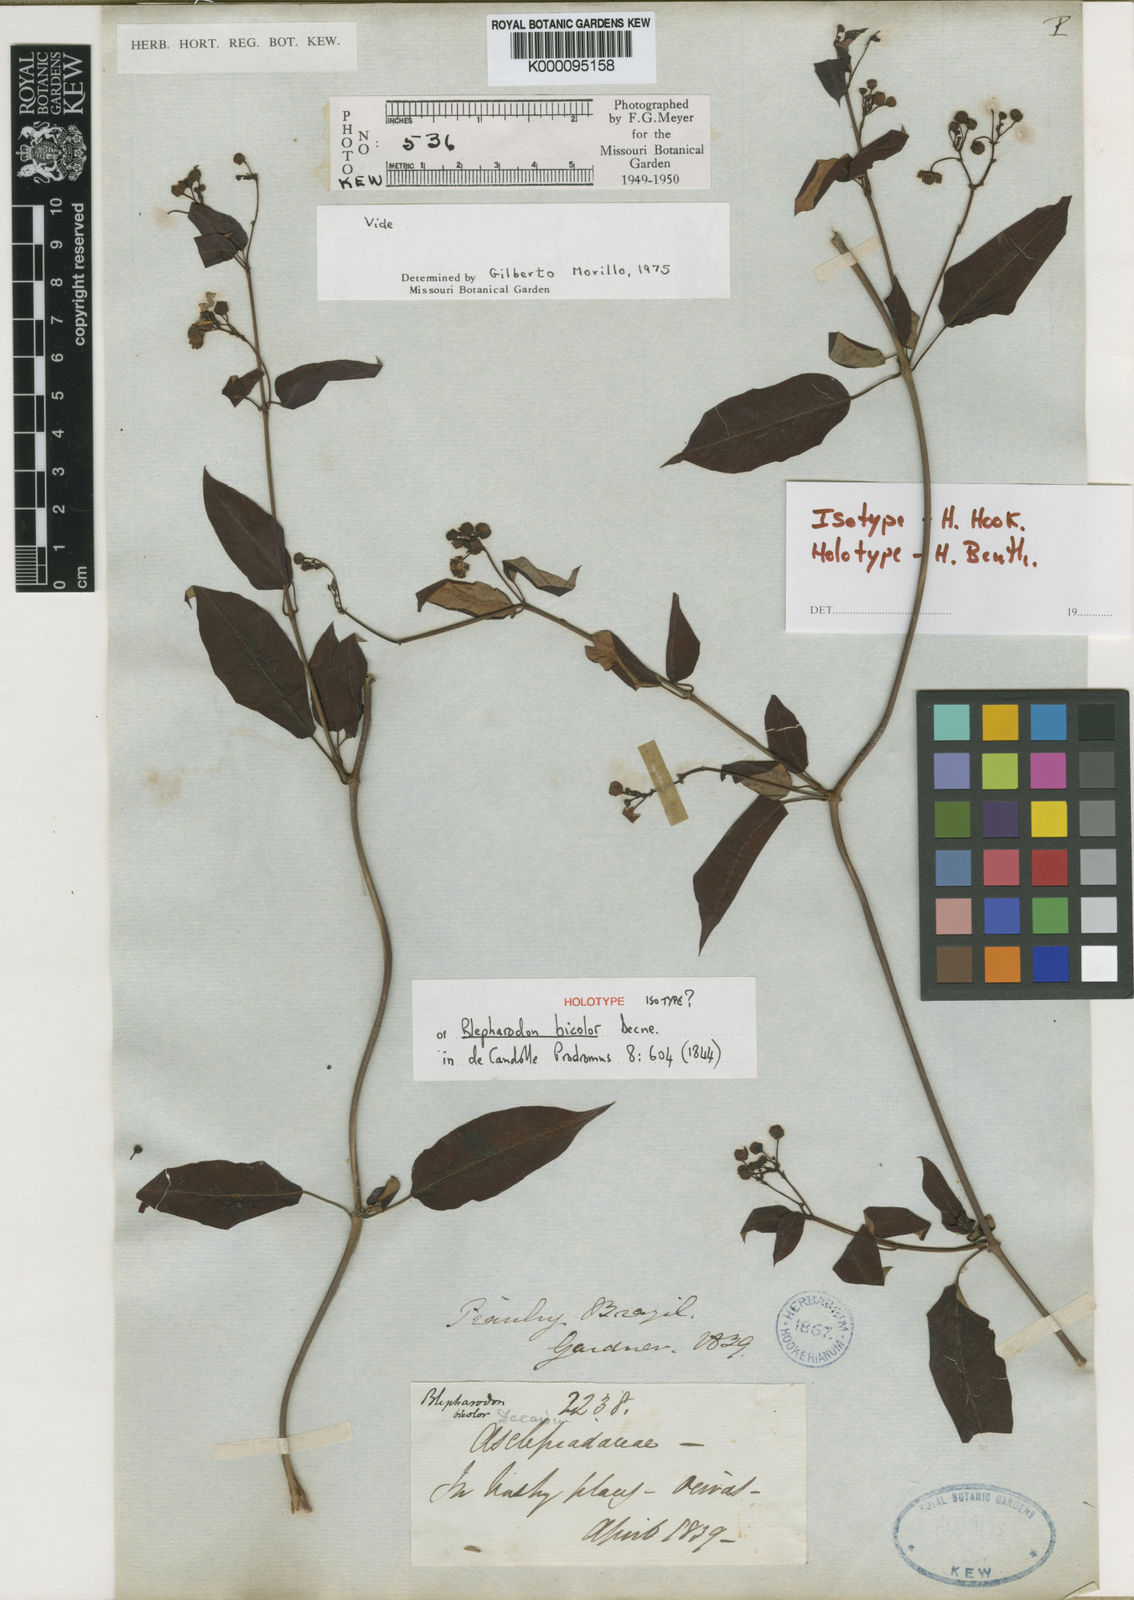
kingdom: Plantae
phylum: Tracheophyta
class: Magnoliopsida
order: Gentianales
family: Apocynaceae
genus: Blepharodon
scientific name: Blepharodon bicolor
